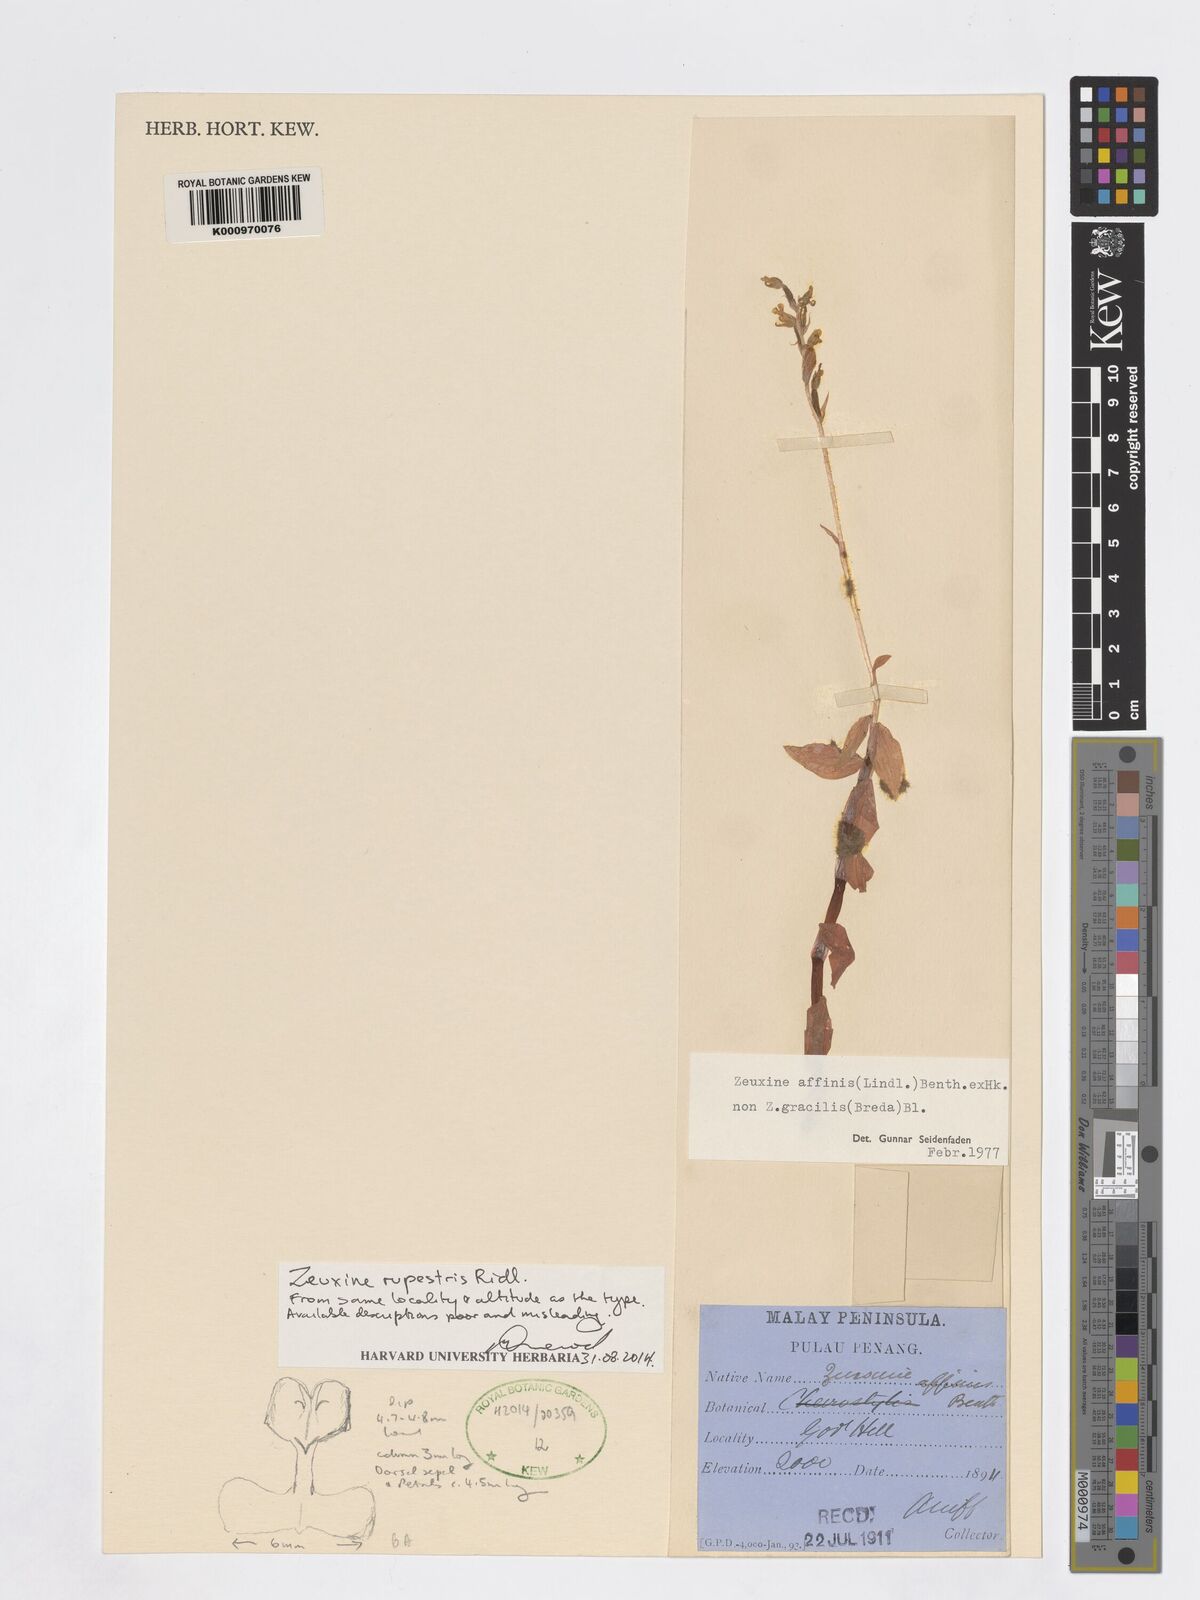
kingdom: Plantae
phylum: Tracheophyta
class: Liliopsida
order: Asparagales
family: Orchidaceae
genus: Zeuxine
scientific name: Zeuxine rupestris
